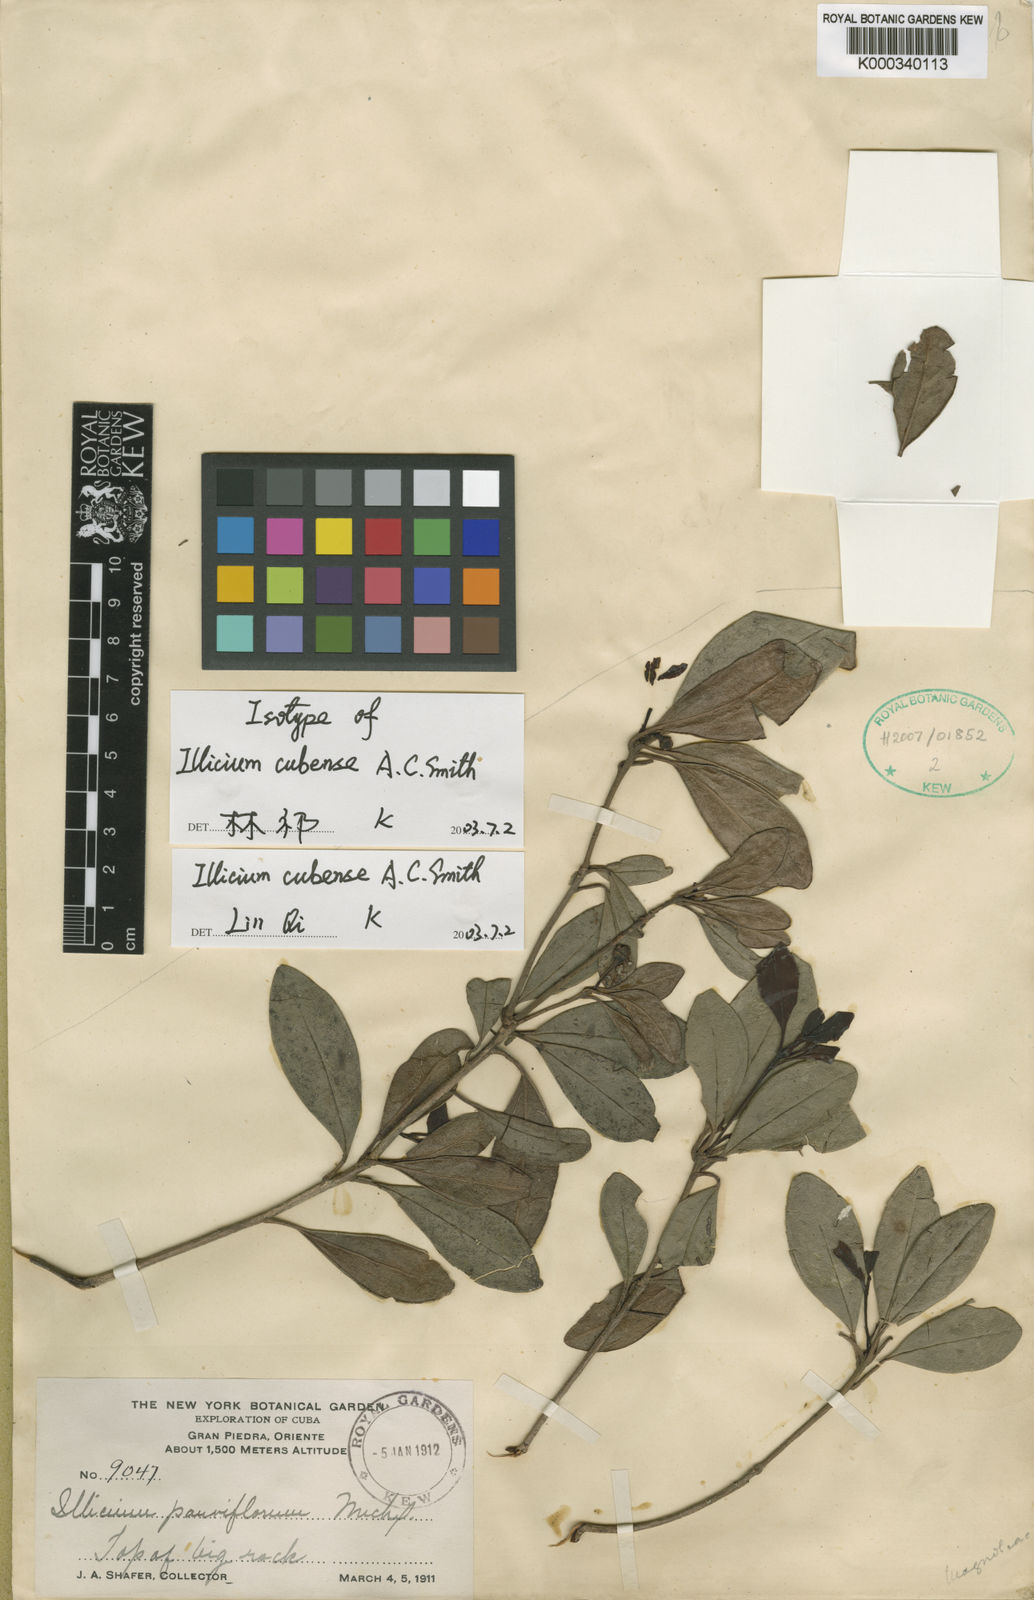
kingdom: Plantae
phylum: Tracheophyta
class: Magnoliopsida
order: Austrobaileyales
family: Schisandraceae
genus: Illicium
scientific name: Illicium cubense
